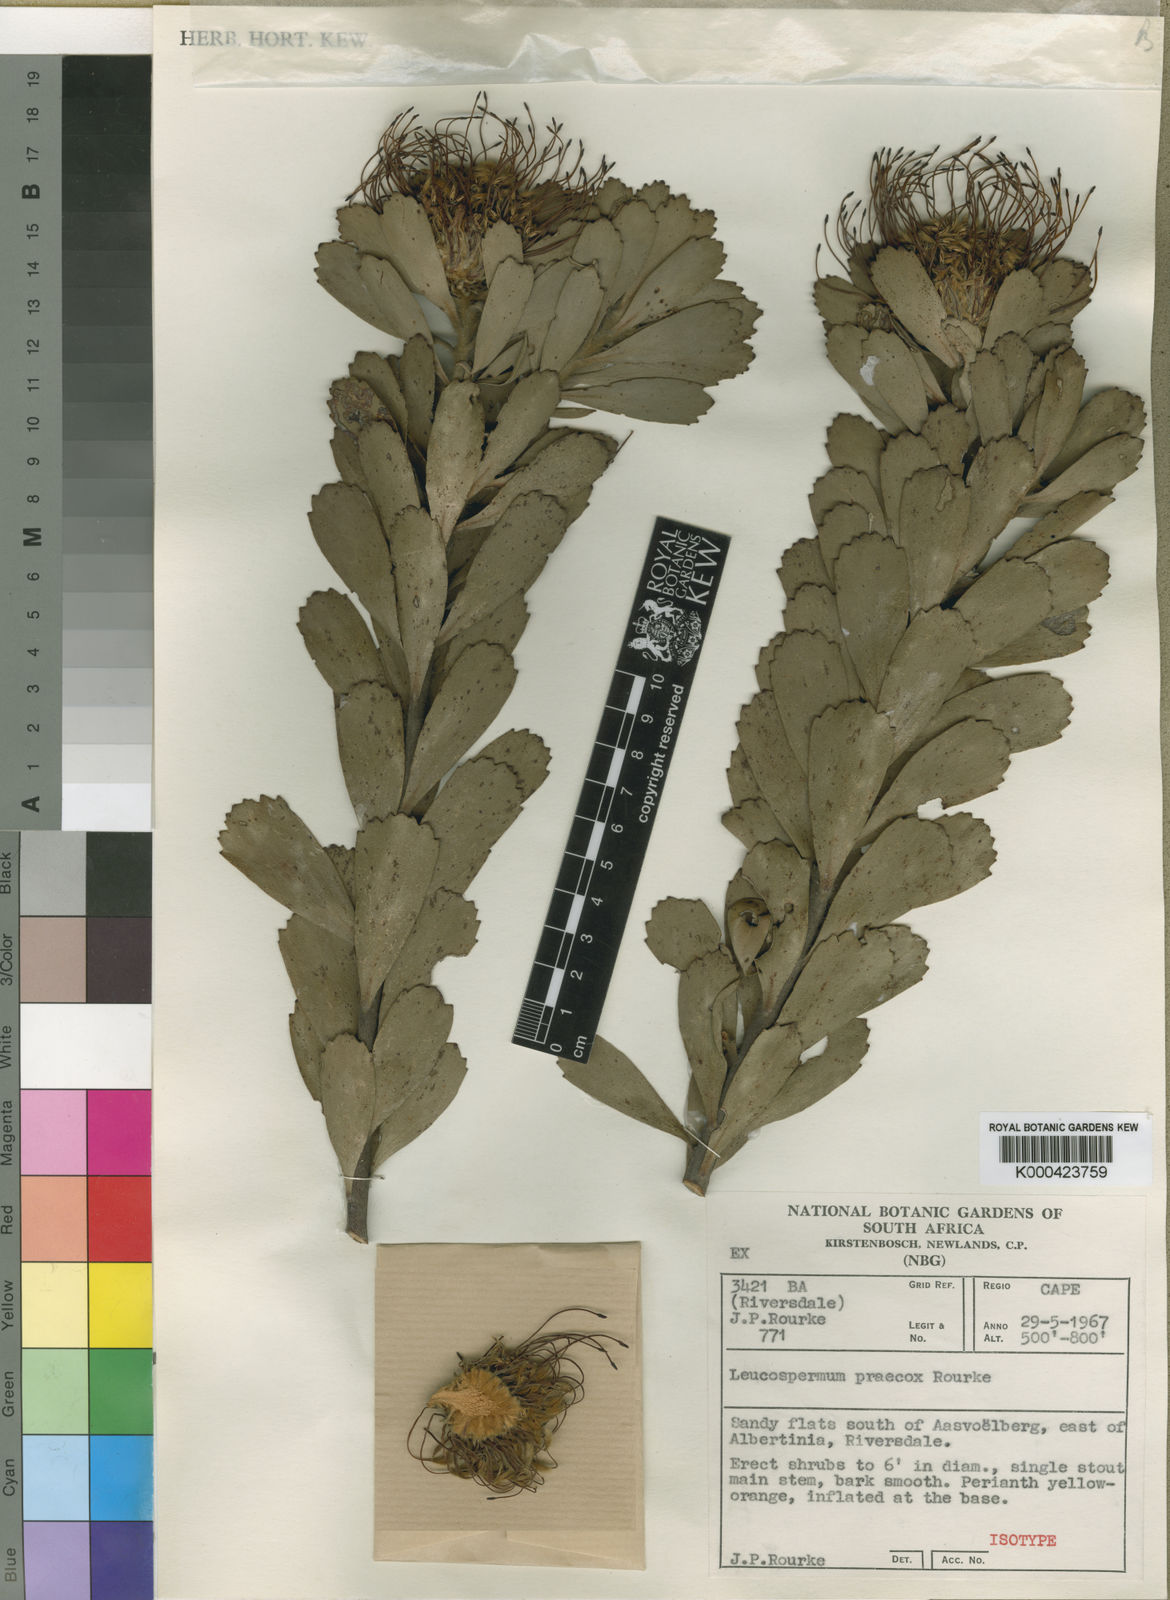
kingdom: Plantae
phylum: Tracheophyta
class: Magnoliopsida
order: Proteales
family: Proteaceae
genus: Leucospermum
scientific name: Leucospermum praecox
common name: Mossel bay pincushion
